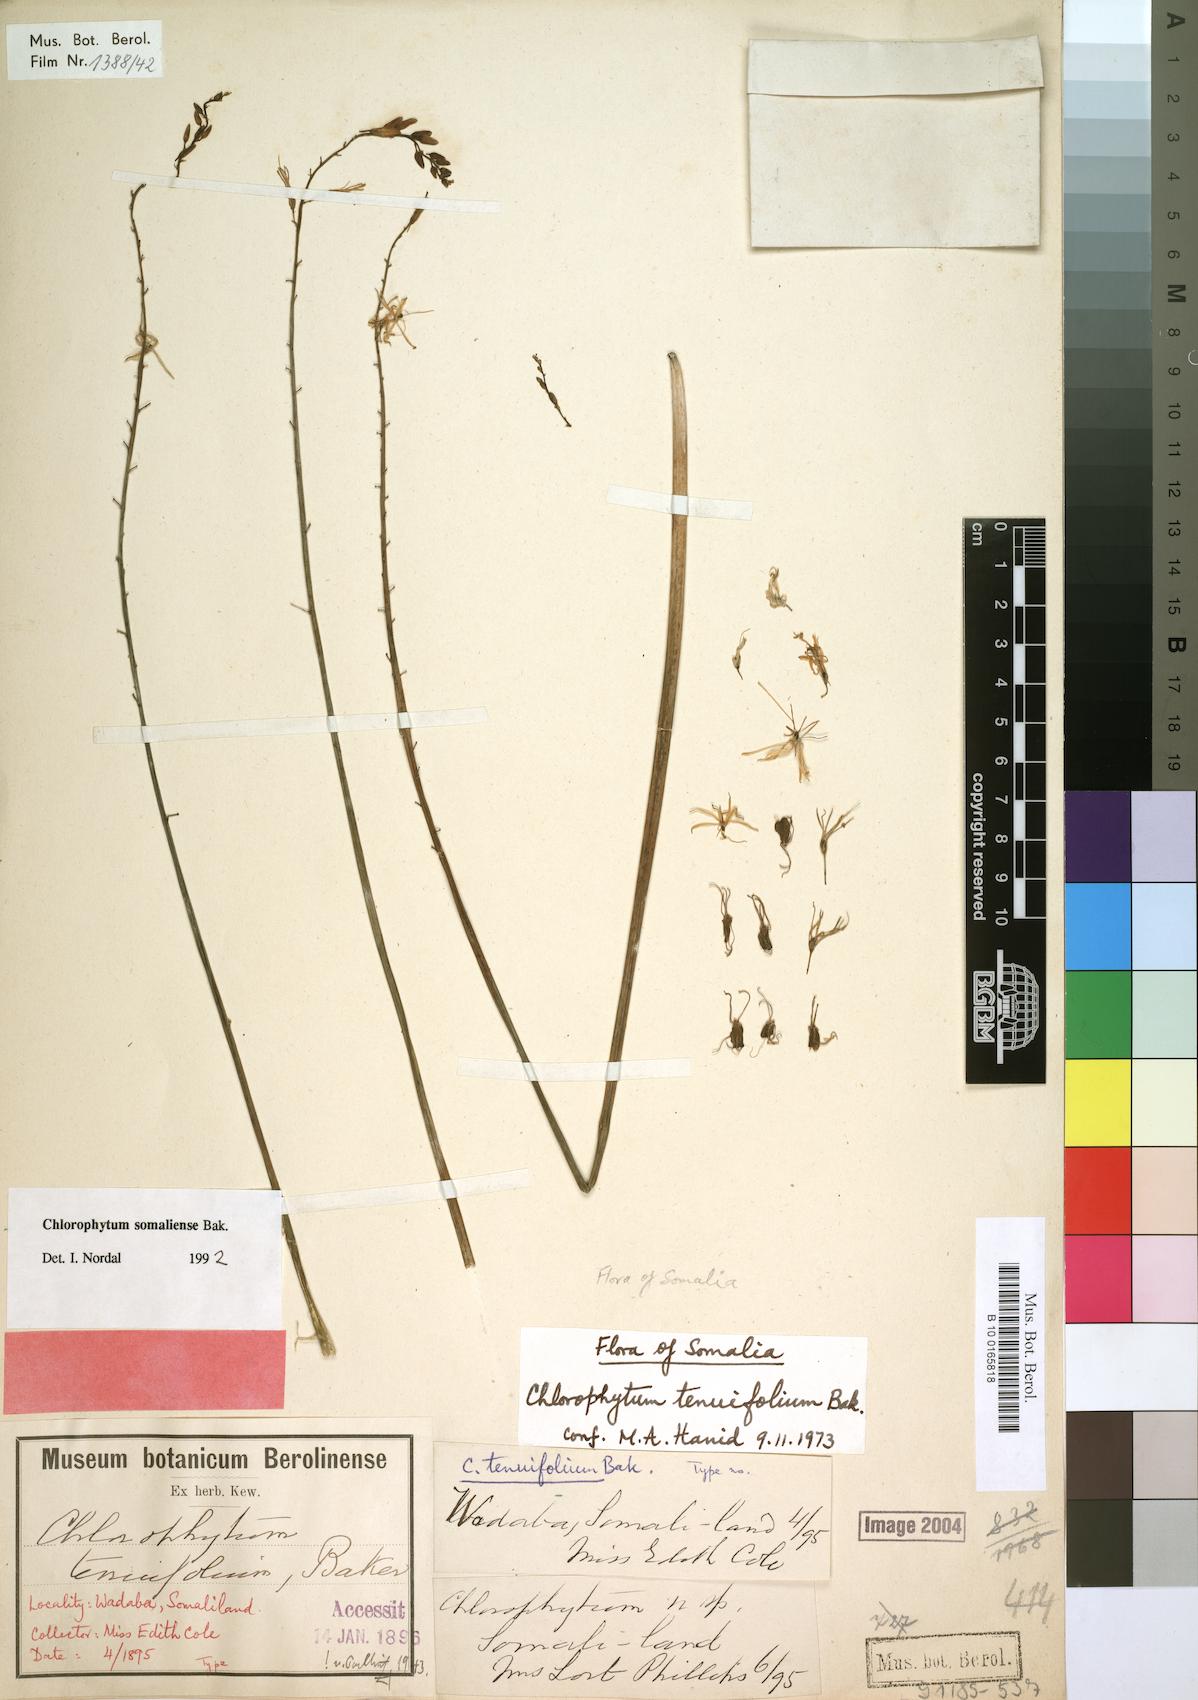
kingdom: Plantae
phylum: Tracheophyta
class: Liliopsida
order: Asparagales
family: Asparagaceae
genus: Chlorophytum
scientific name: Chlorophytum somaliense
